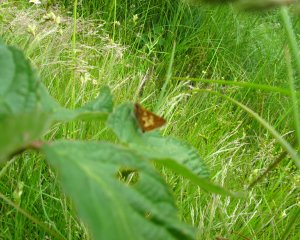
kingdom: Animalia
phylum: Arthropoda
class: Insecta
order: Lepidoptera
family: Hesperiidae
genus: Polites
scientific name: Polites coras
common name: Peck's Skipper
